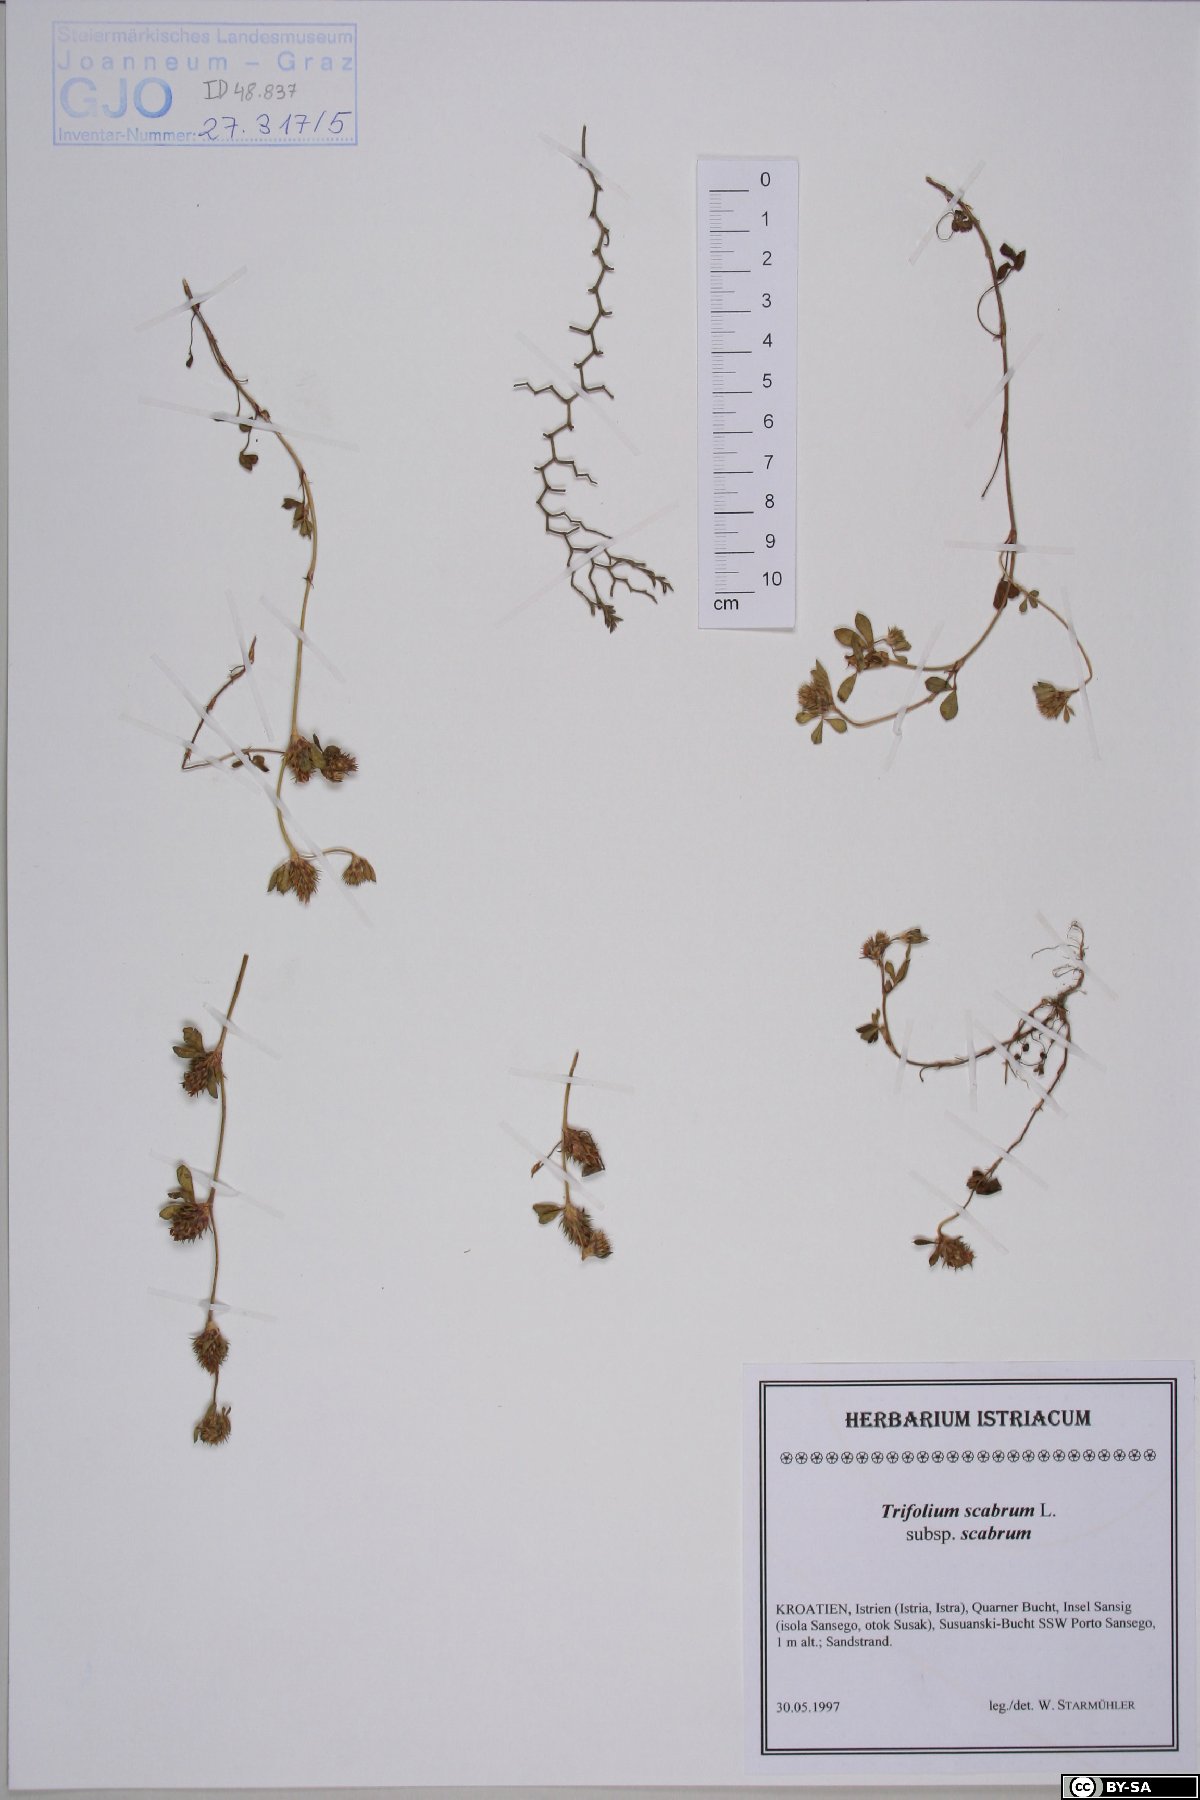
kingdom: Plantae
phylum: Tracheophyta
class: Magnoliopsida
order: Fabales
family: Fabaceae
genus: Trifolium
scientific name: Trifolium scabrum
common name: Rough clover
